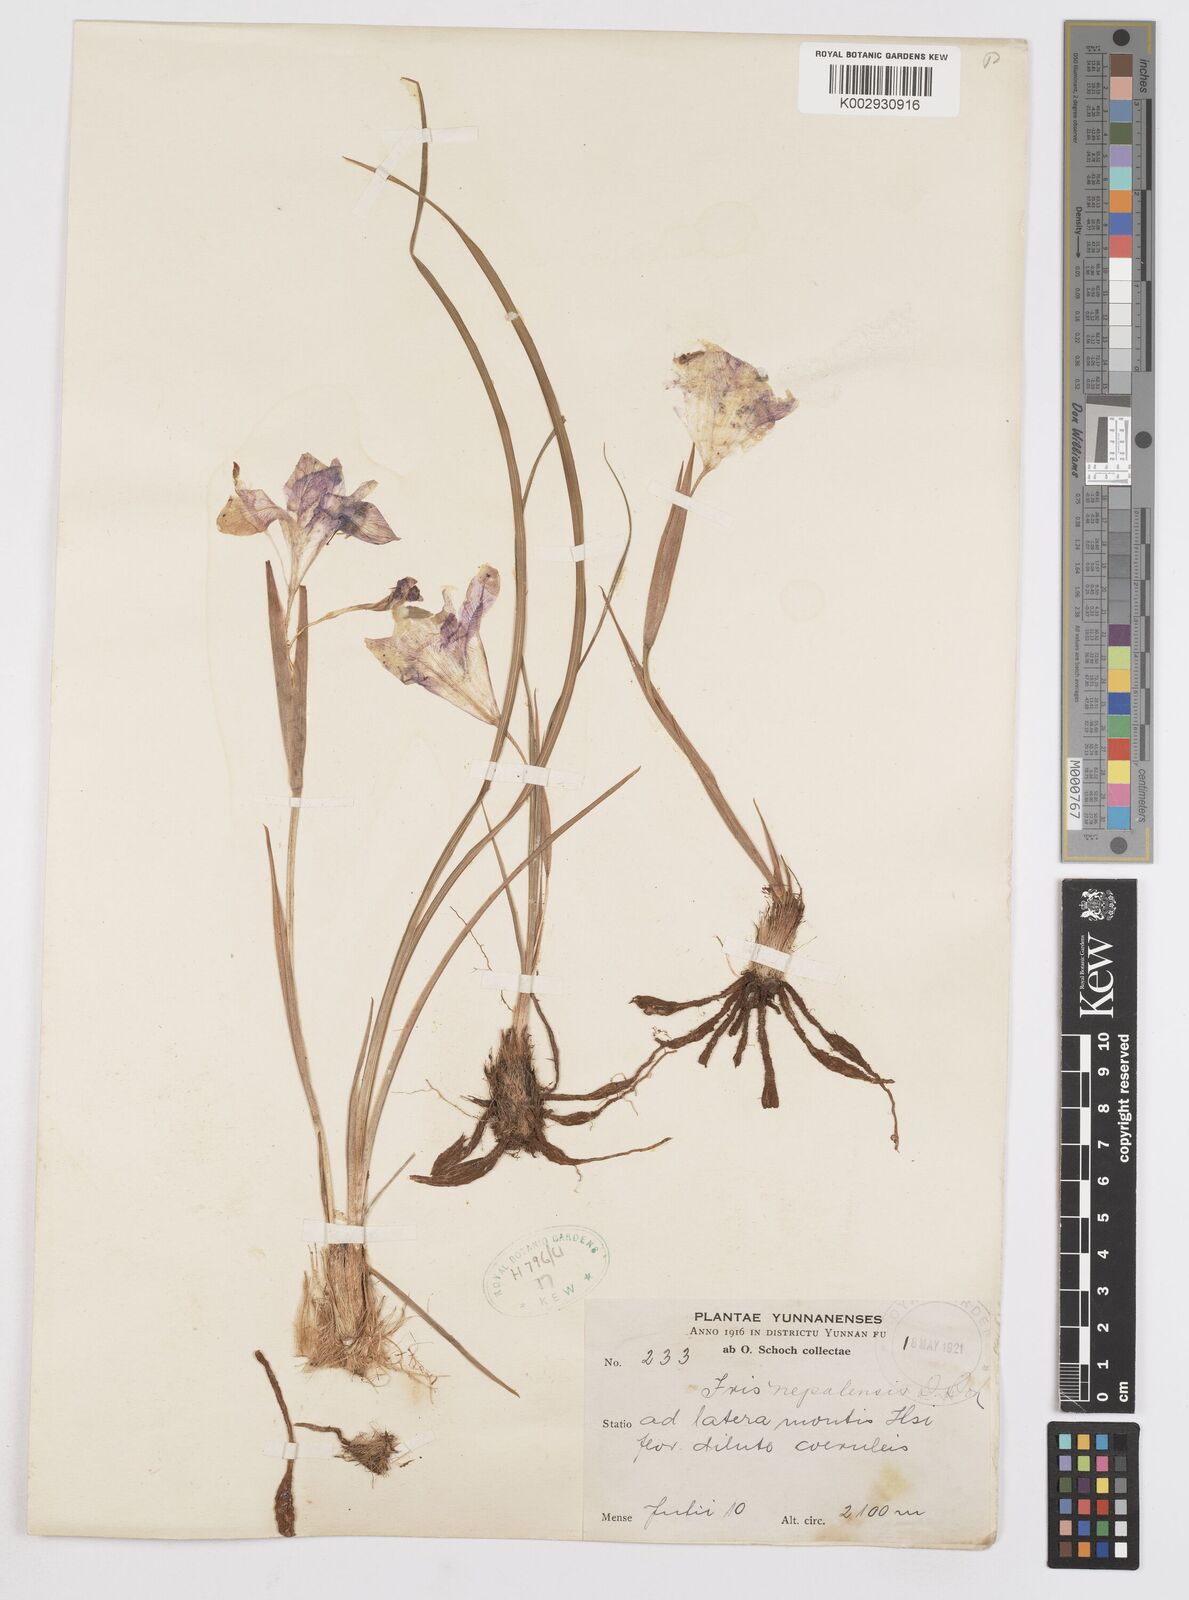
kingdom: Plantae
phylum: Tracheophyta
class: Liliopsida
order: Asparagales
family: Iridaceae
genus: Iris
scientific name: Iris decora
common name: Nepal iris
